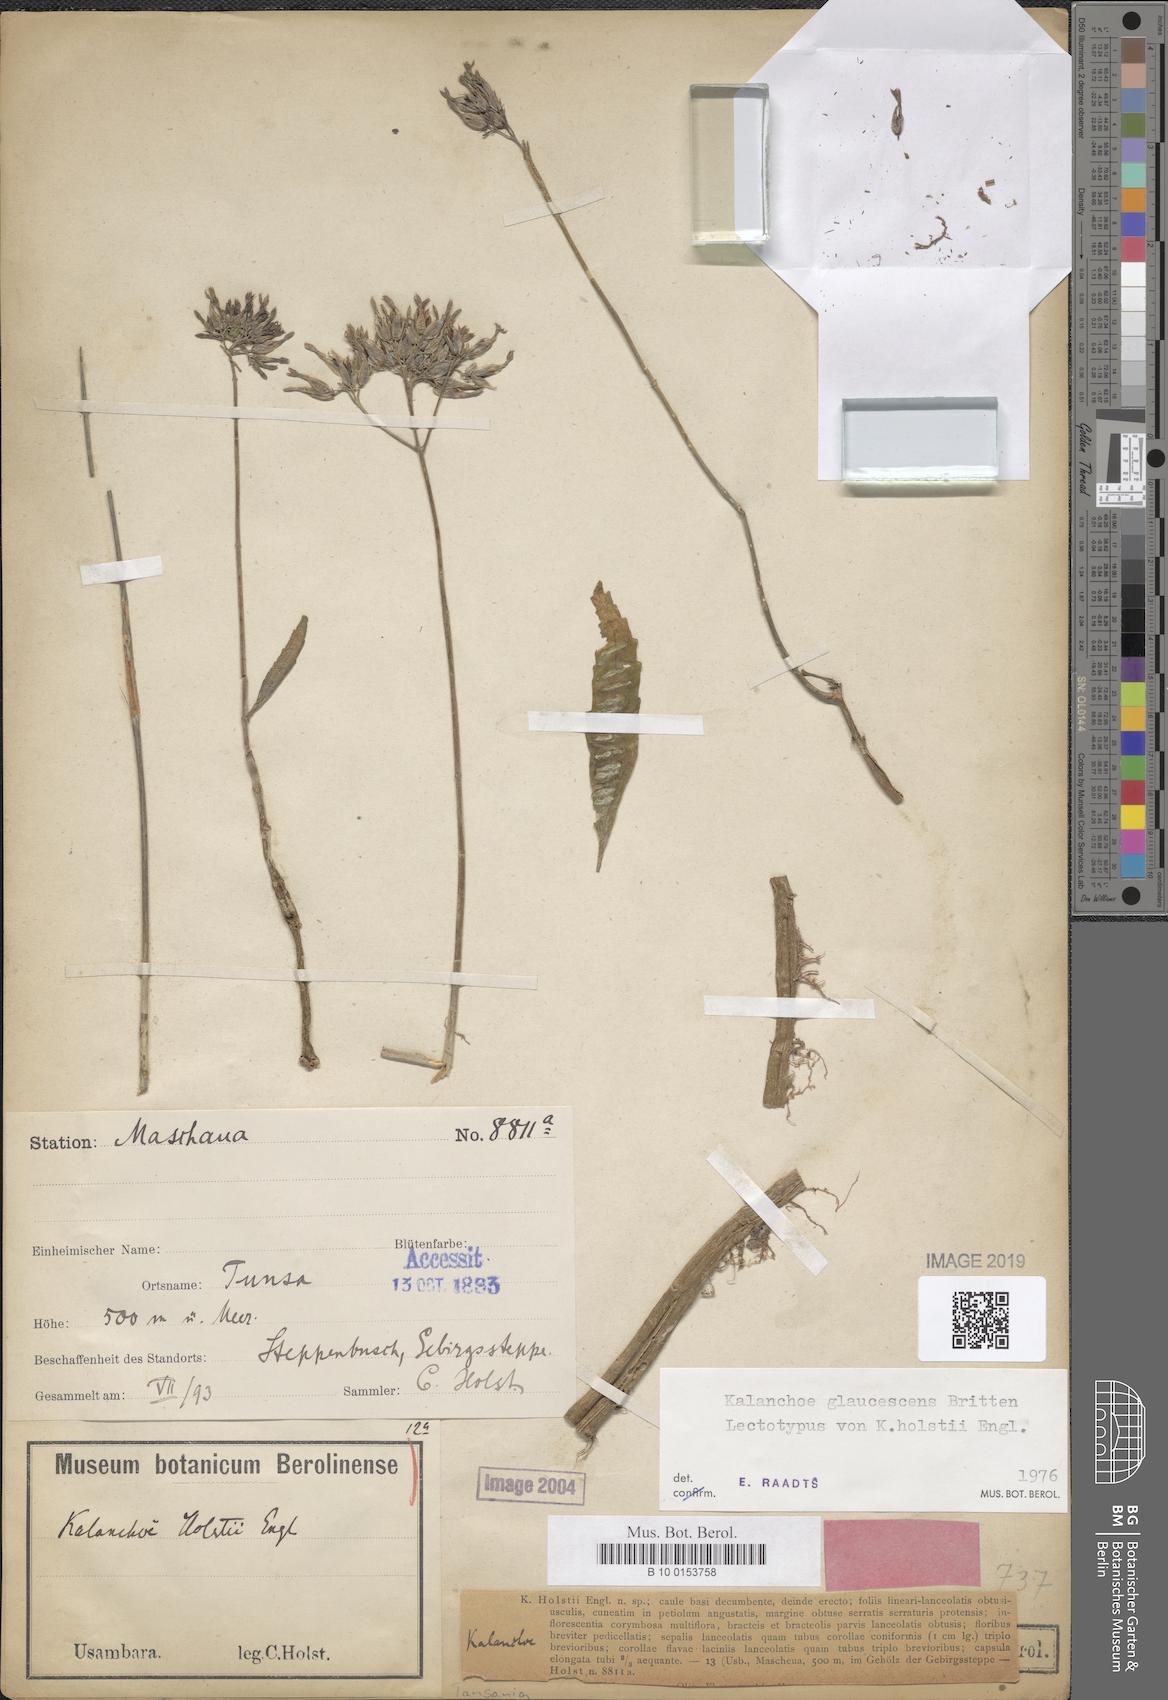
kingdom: Plantae
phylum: Tracheophyta
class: Magnoliopsida
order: Saxifragales
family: Crassulaceae
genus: Kalanchoe
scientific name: Kalanchoe glaucescens
